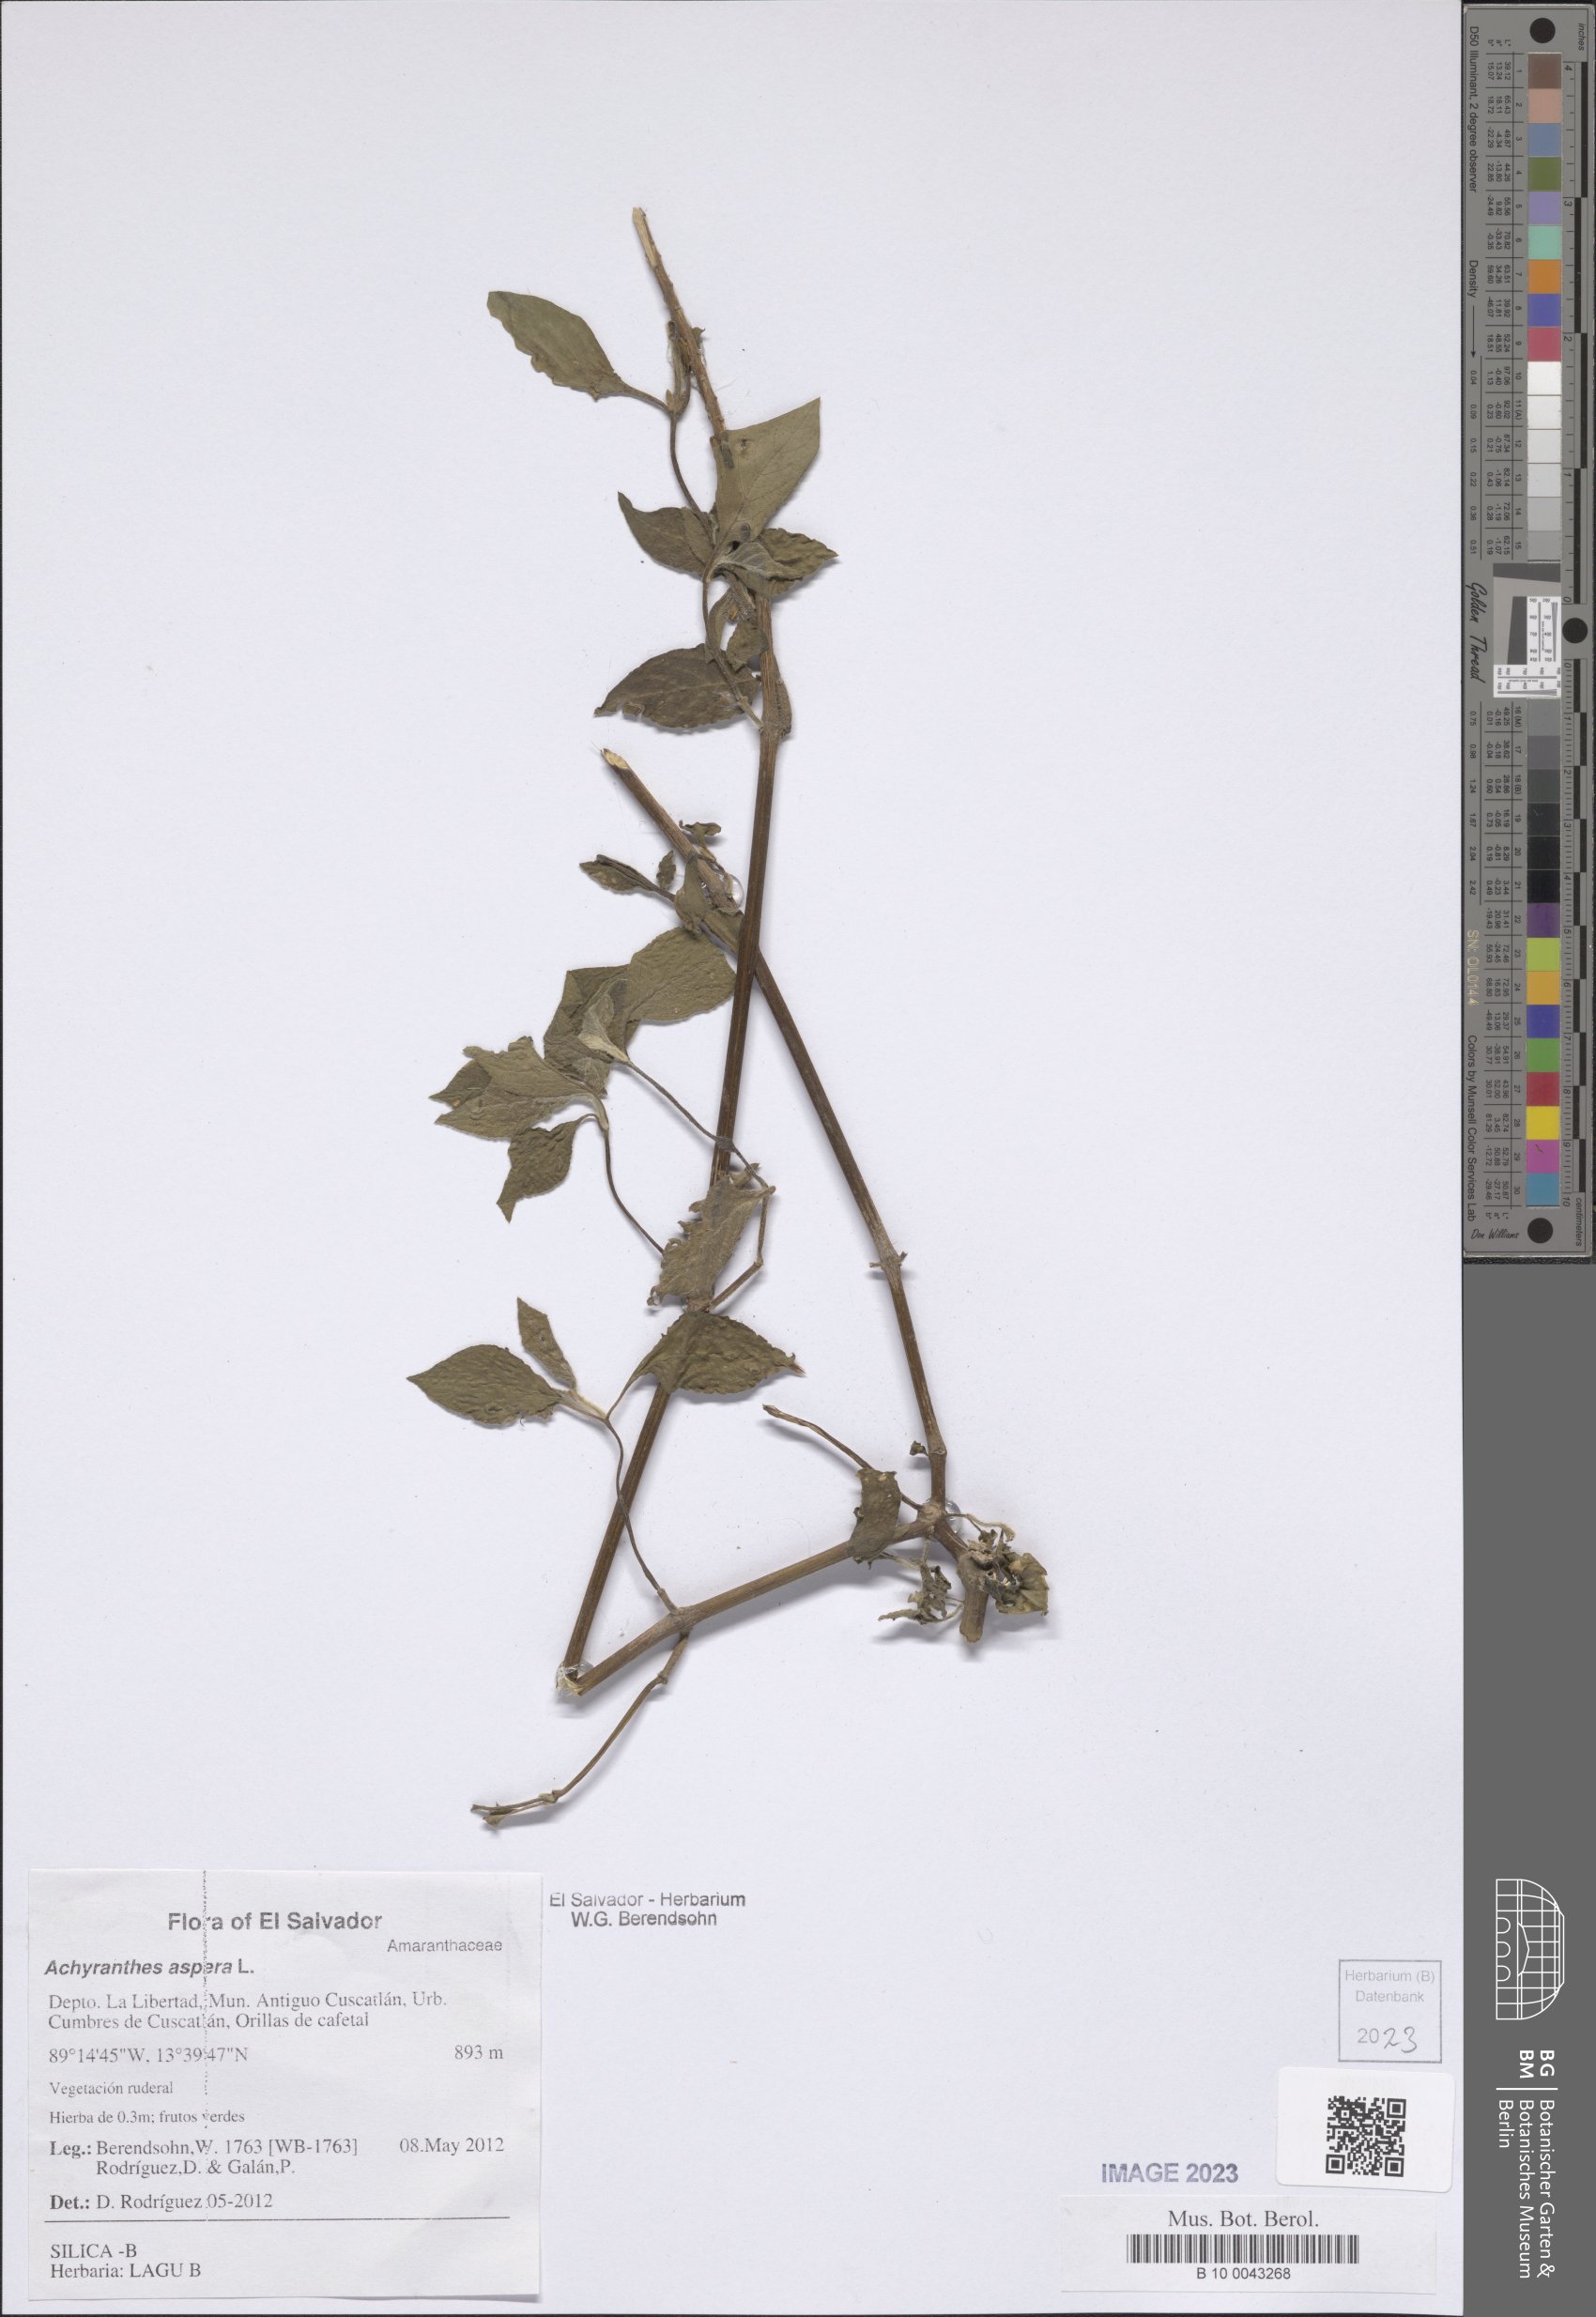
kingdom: Plantae
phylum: Tracheophyta
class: Magnoliopsida
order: Caryophyllales
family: Amaranthaceae
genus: Achyranthes
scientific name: Achyranthes aspera
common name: Devil's horsewhip
